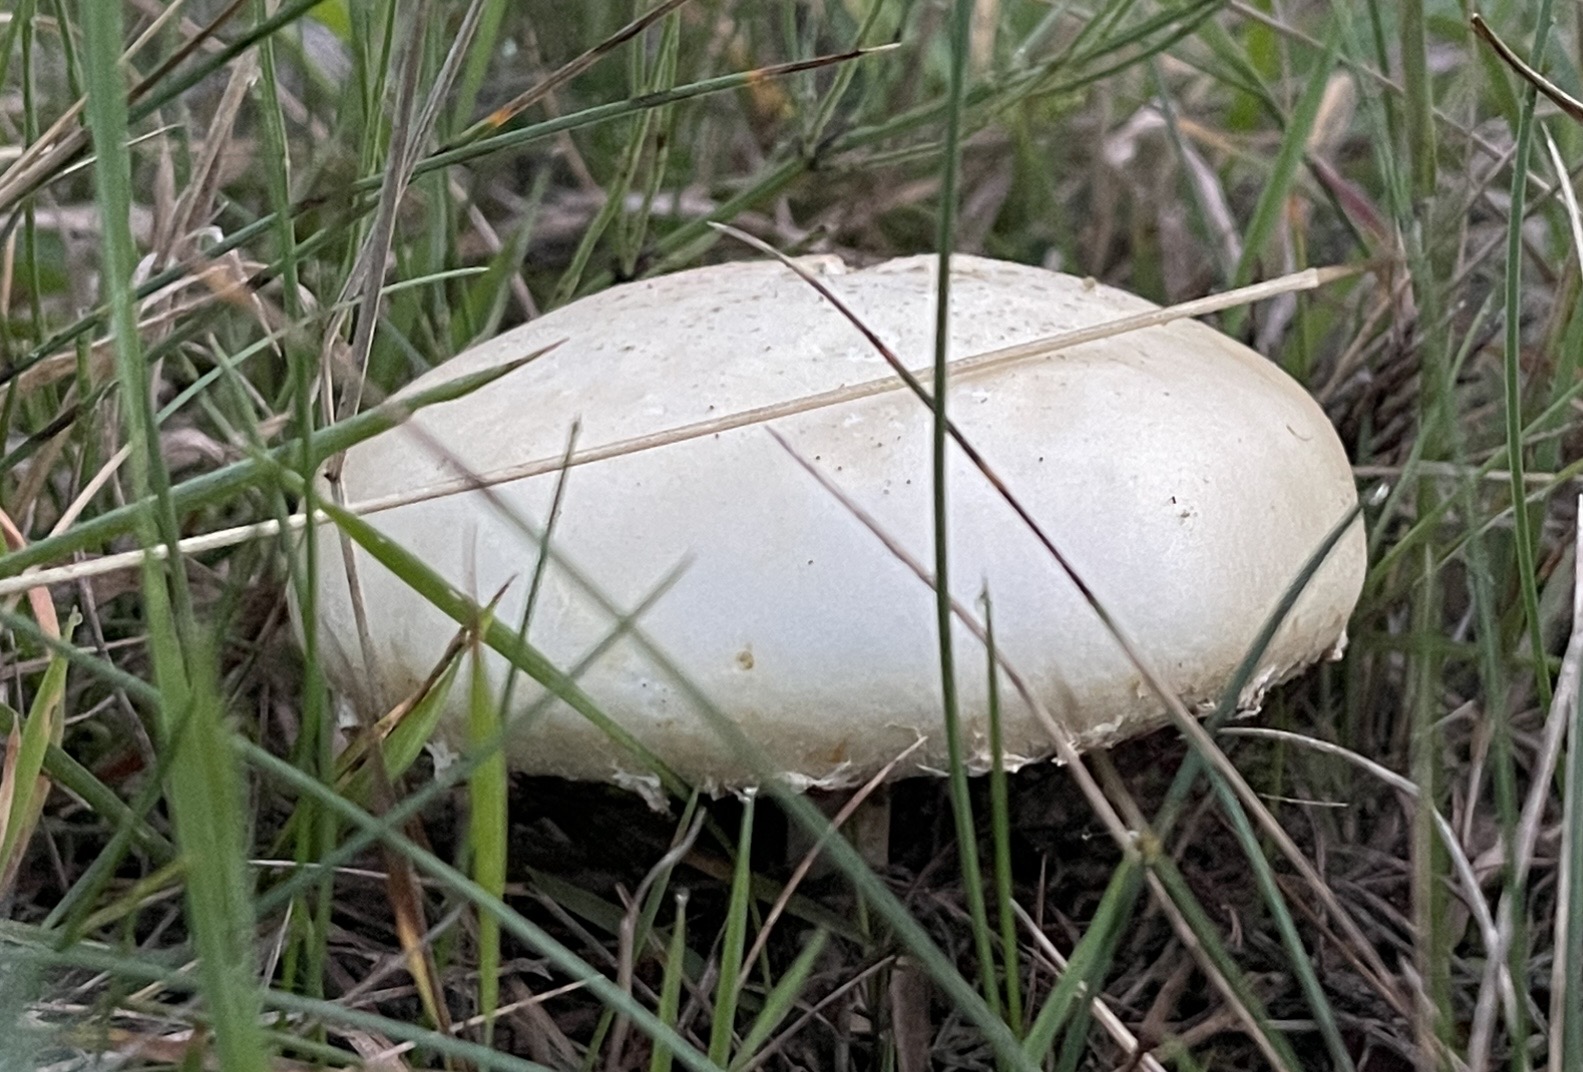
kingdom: Fungi
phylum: Basidiomycota
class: Agaricomycetes
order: Agaricales
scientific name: Agaricales
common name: champignonordenen
